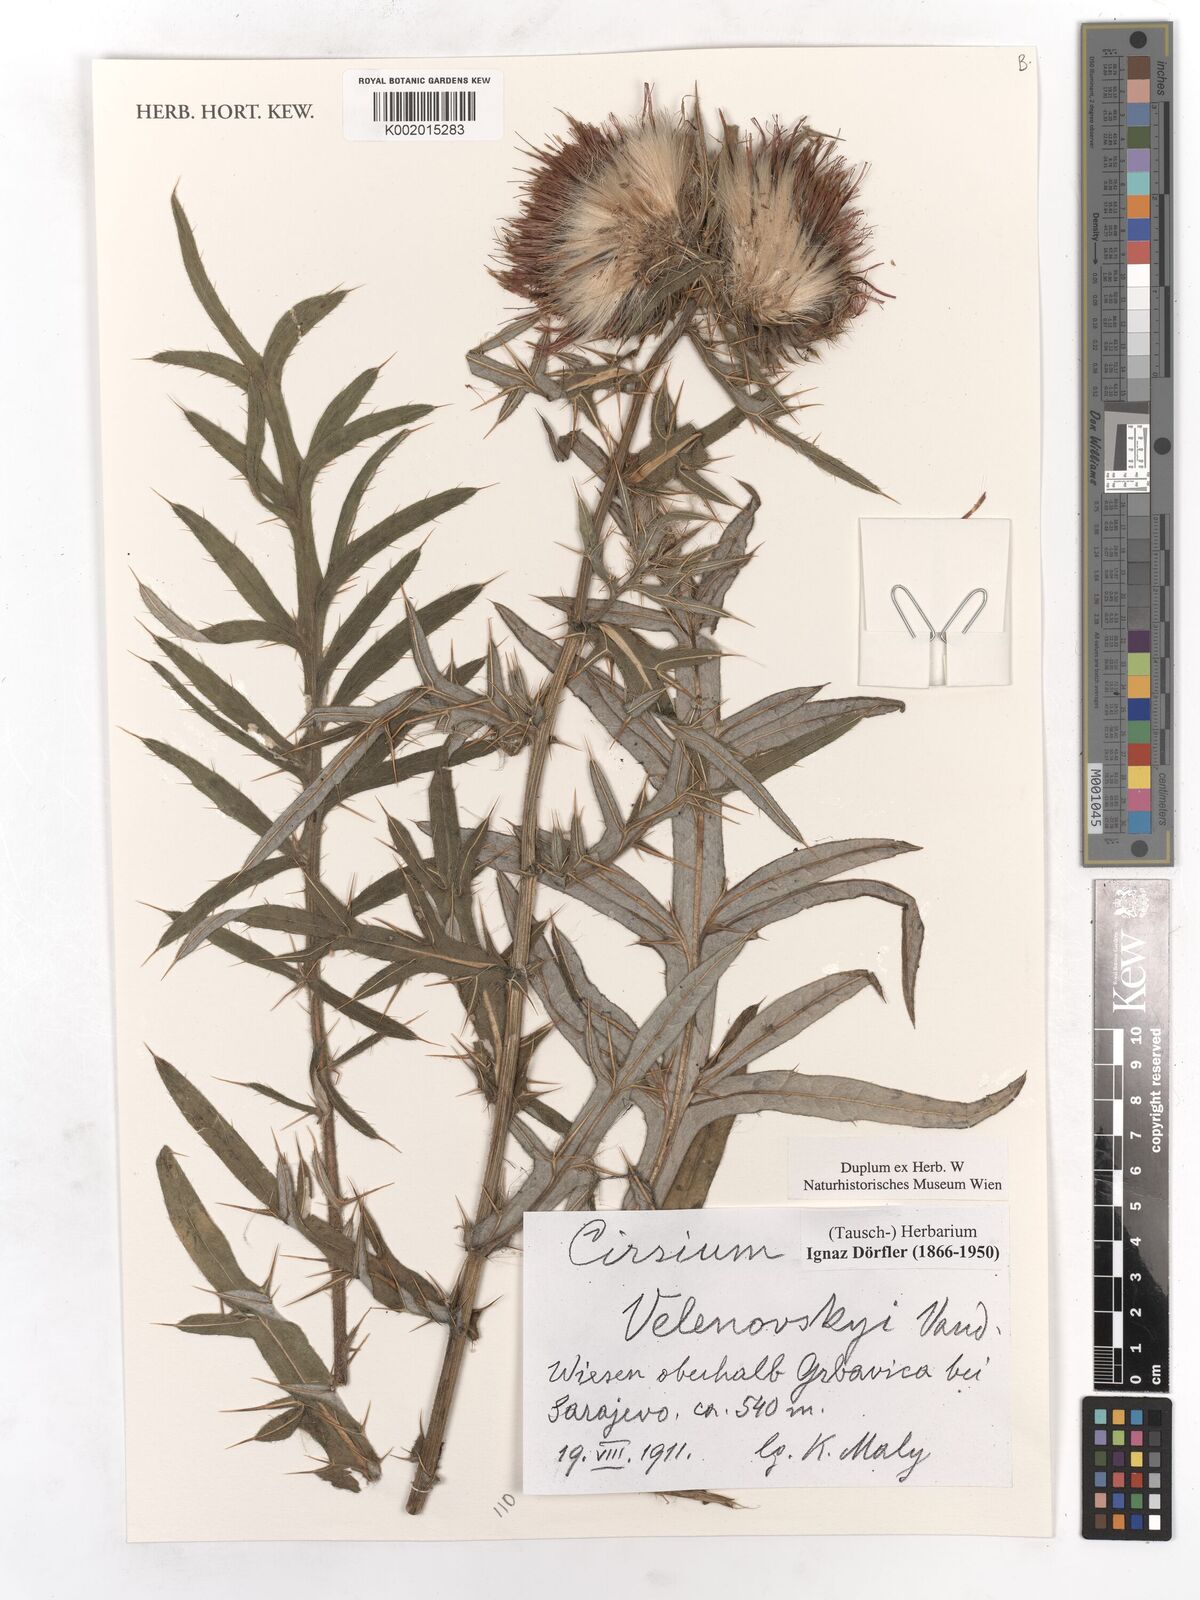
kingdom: Plantae
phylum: Tracheophyta
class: Magnoliopsida
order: Asterales
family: Asteraceae
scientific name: Asteraceae
